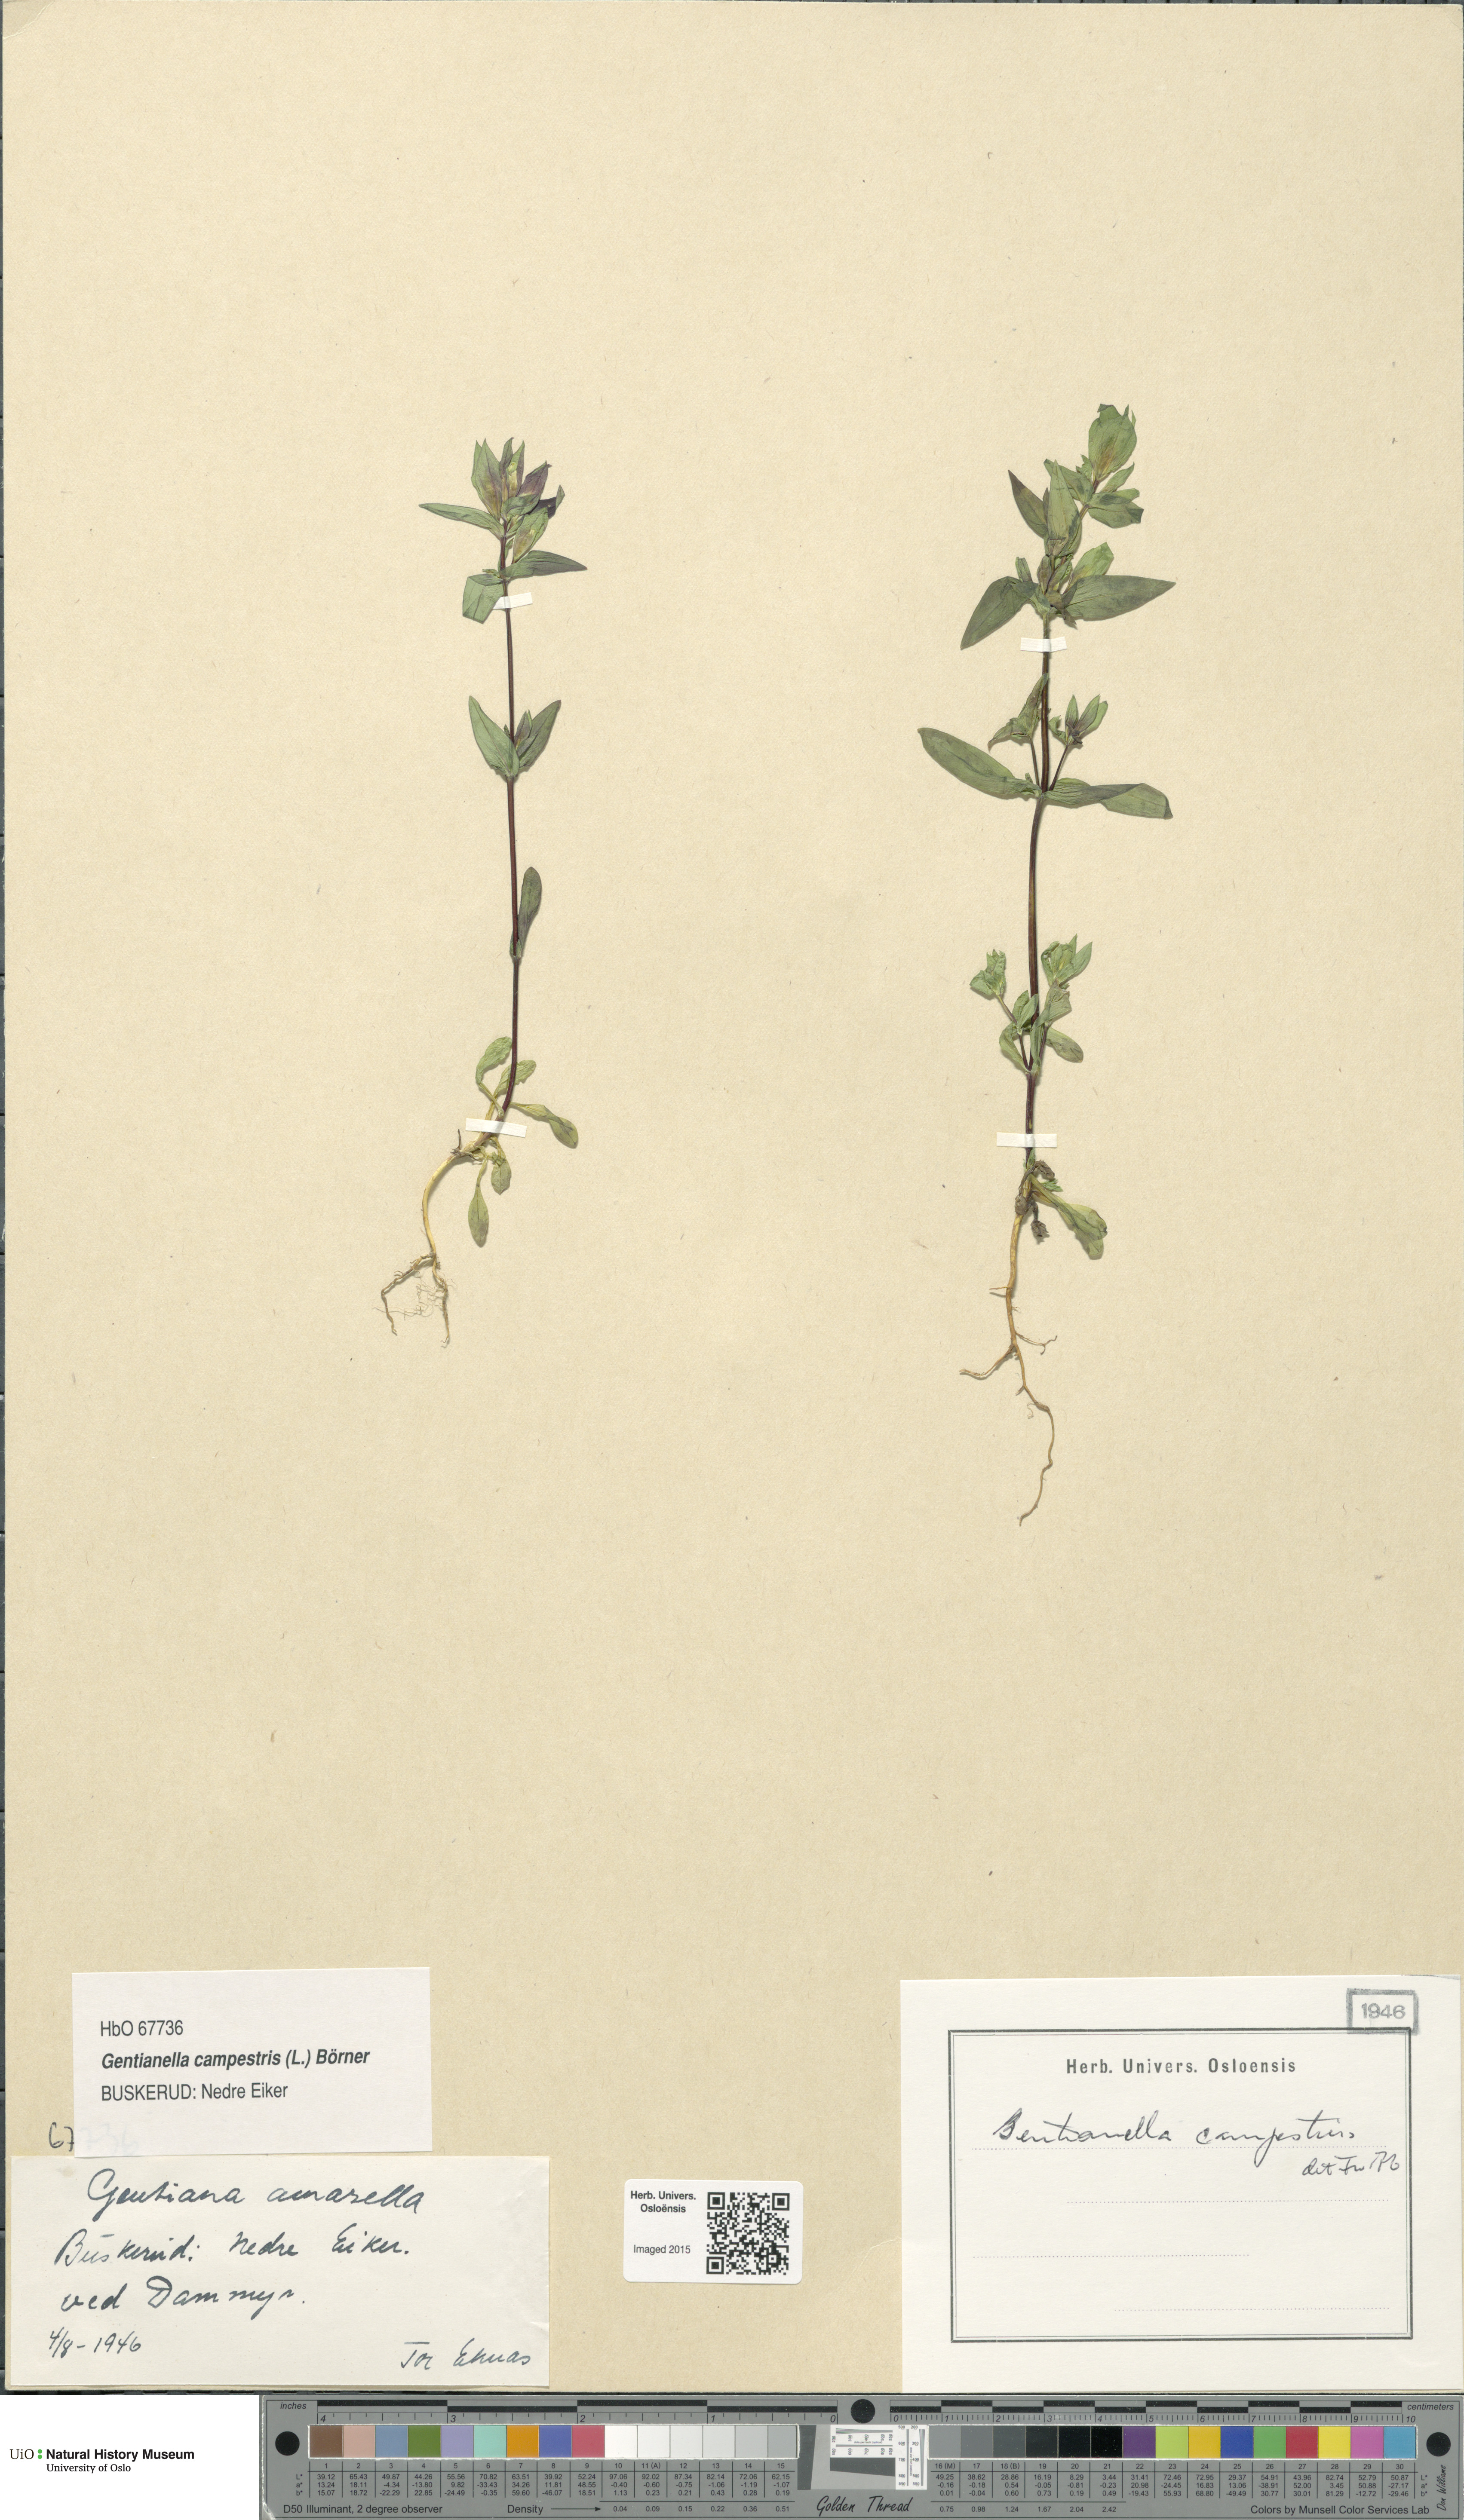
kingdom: Plantae
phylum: Tracheophyta
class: Magnoliopsida
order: Gentianales
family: Gentianaceae
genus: Gentianella
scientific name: Gentianella campestris
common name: Field gentian
